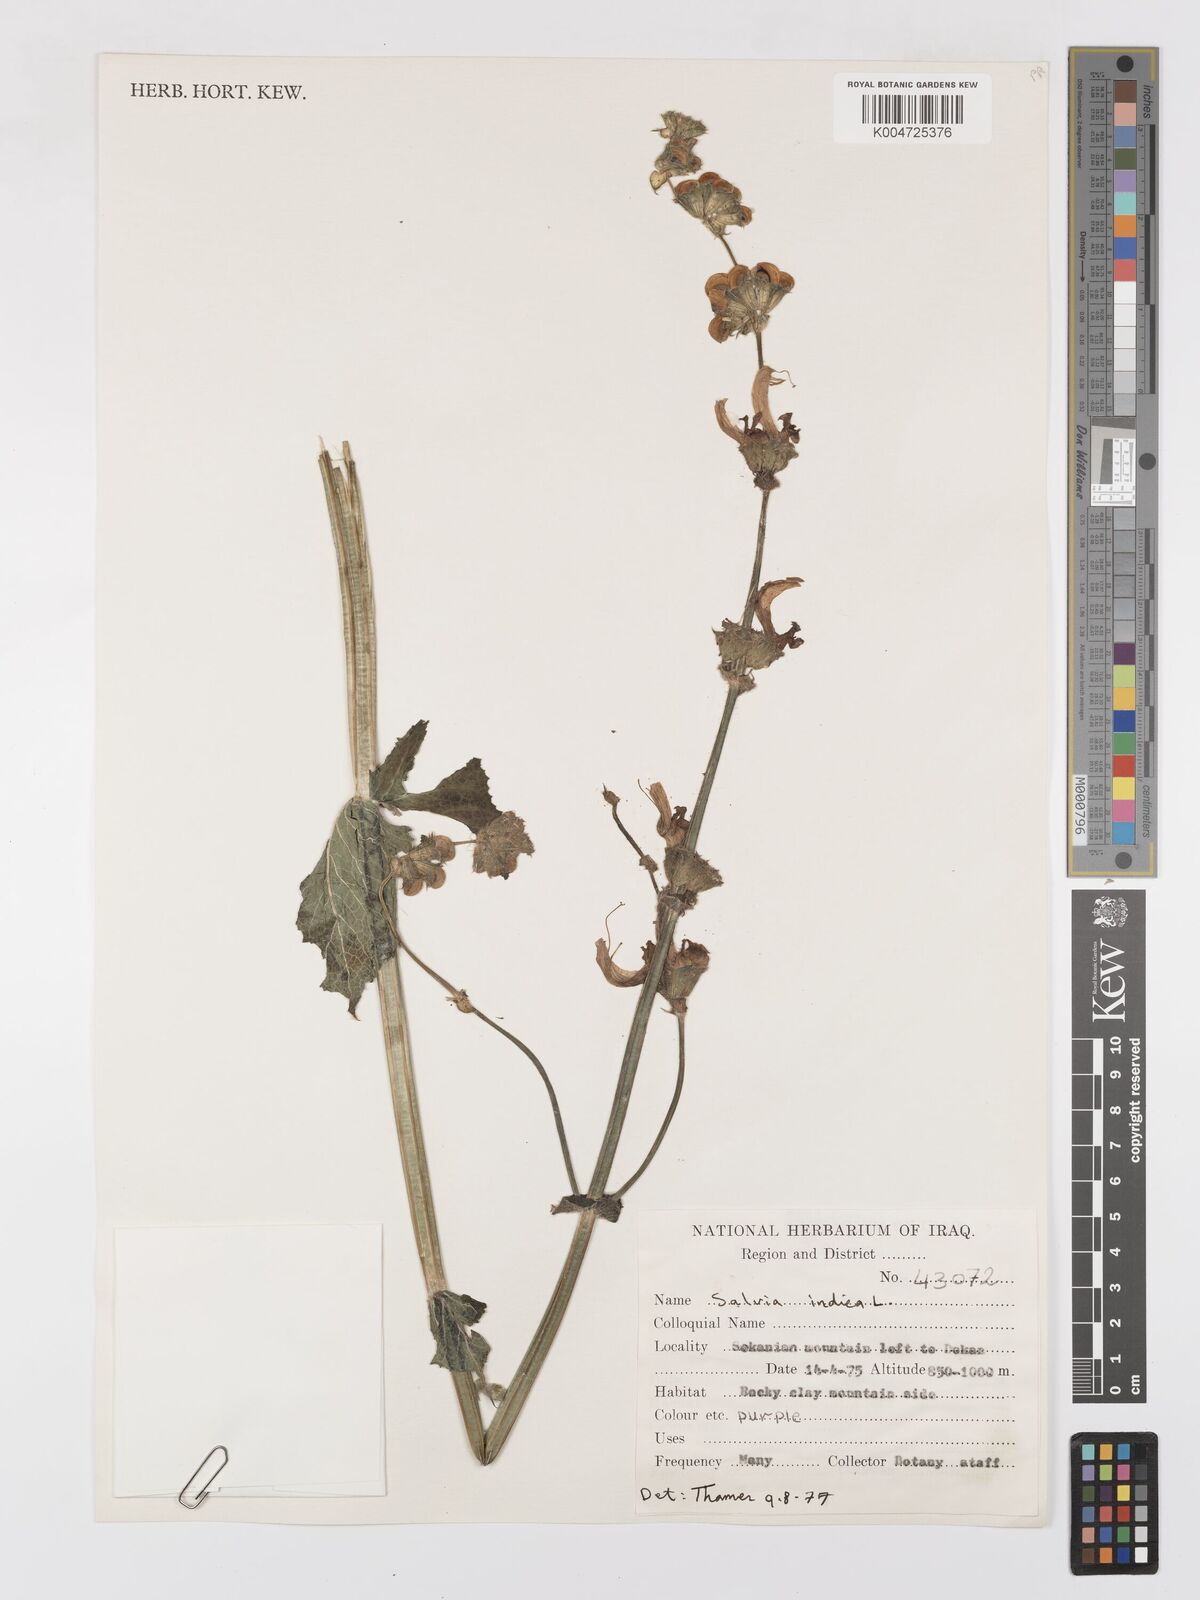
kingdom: Plantae
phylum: Tracheophyta
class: Magnoliopsida
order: Lamiales
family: Lamiaceae
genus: Salvia
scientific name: Salvia indica
